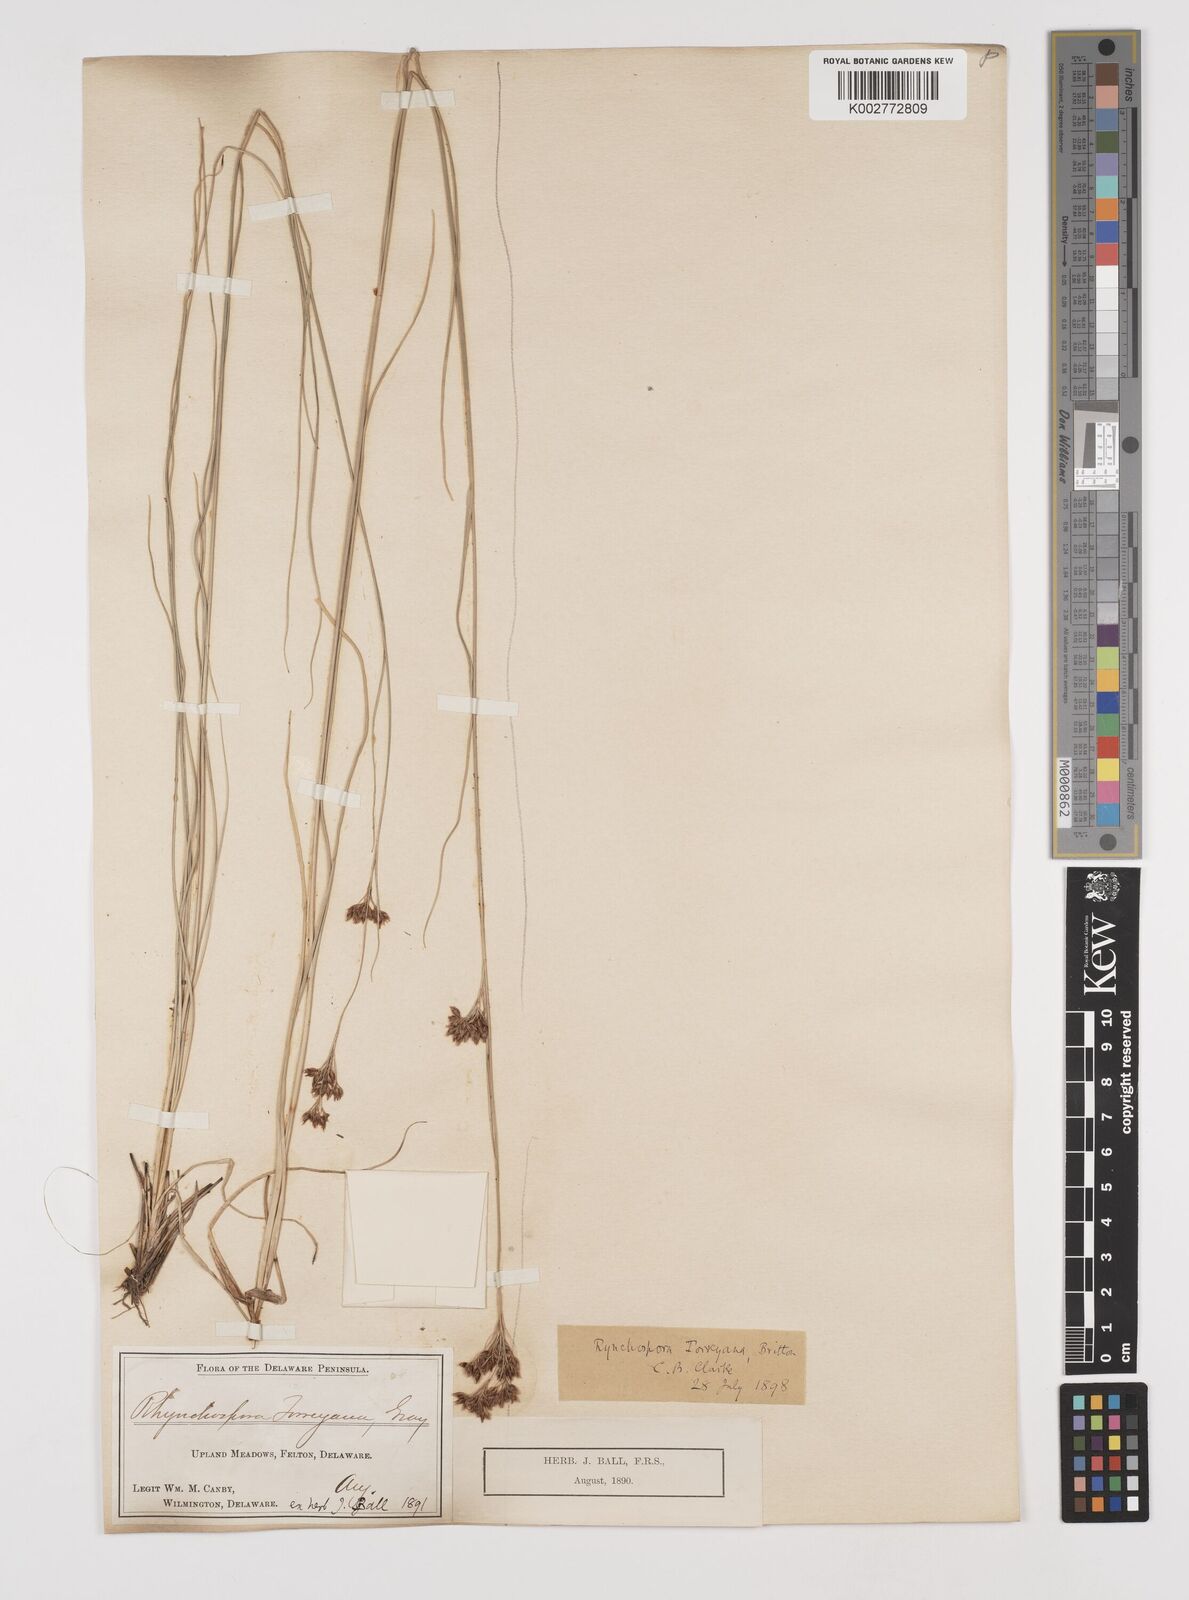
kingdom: Plantae
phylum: Tracheophyta
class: Liliopsida
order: Poales
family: Cyperaceae
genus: Rhynchospora
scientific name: Rhynchospora torreyana
